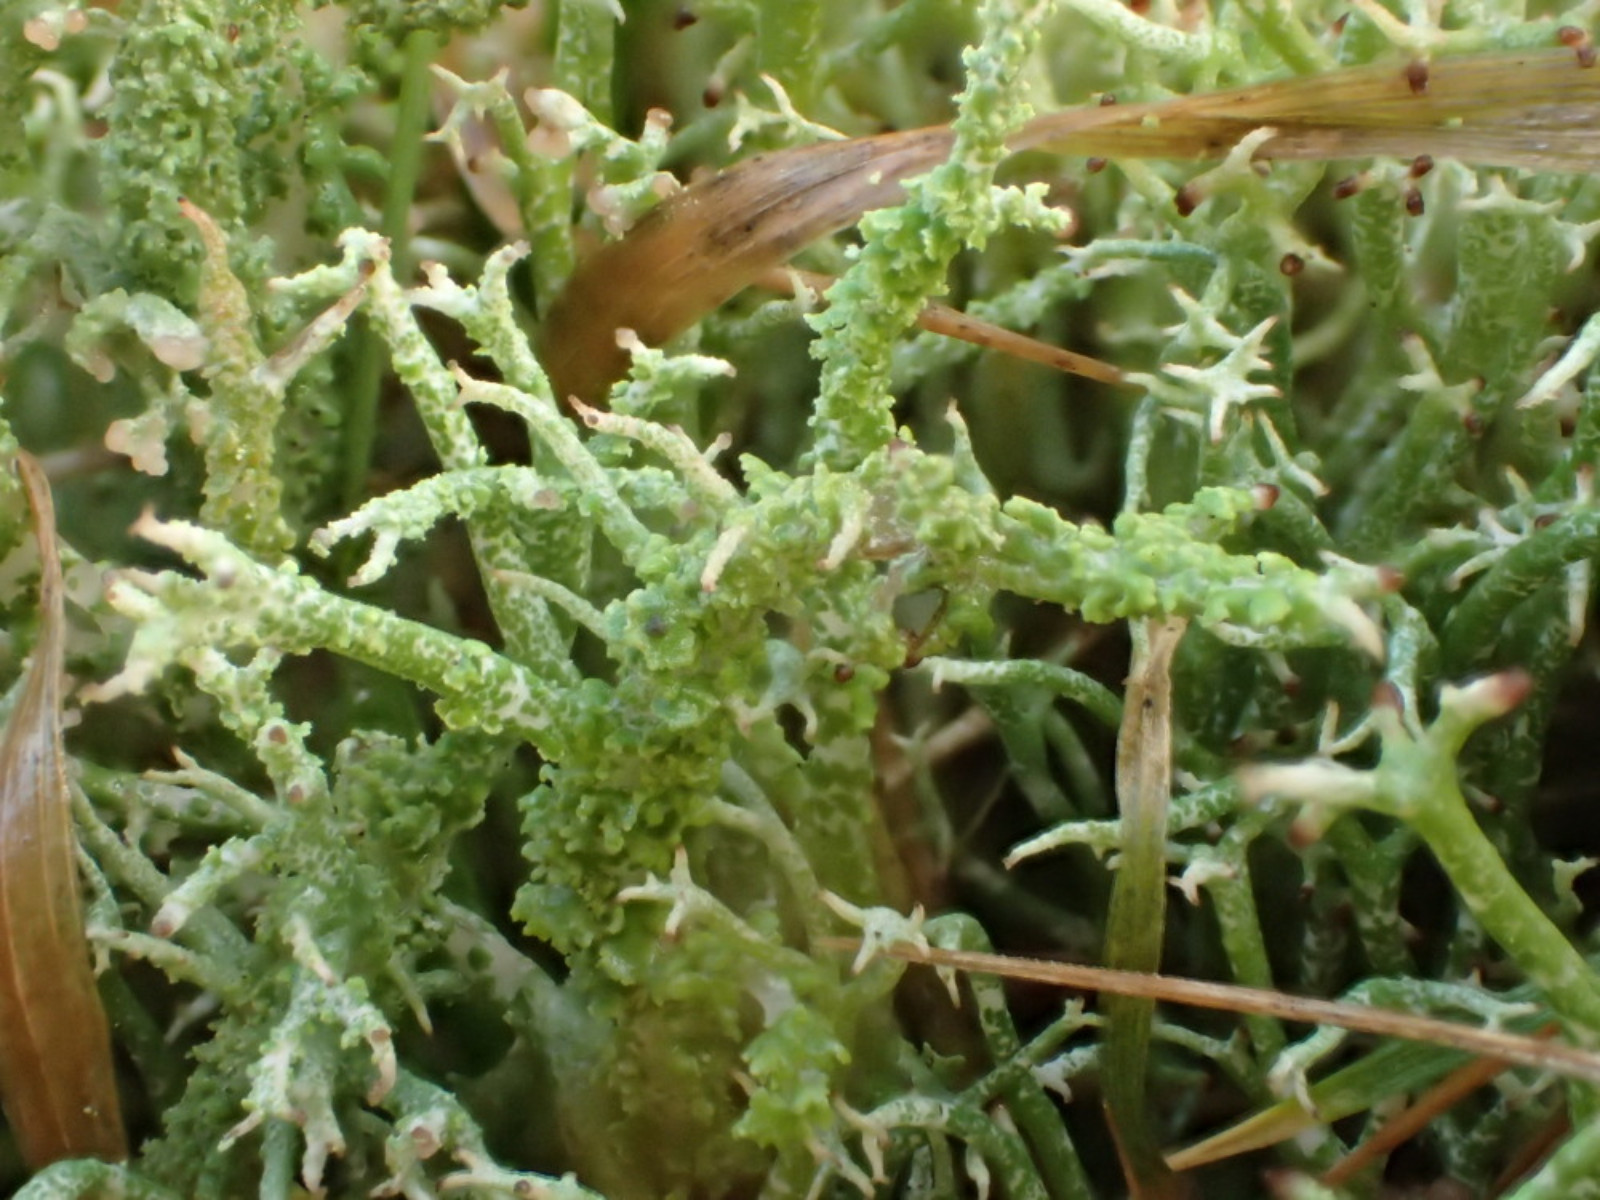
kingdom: Fungi
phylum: Ascomycota
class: Lecanoromycetes
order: Lecanorales
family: Cladoniaceae
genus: Cladonia
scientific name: Cladonia scabriuscula
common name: ru bægerlav
